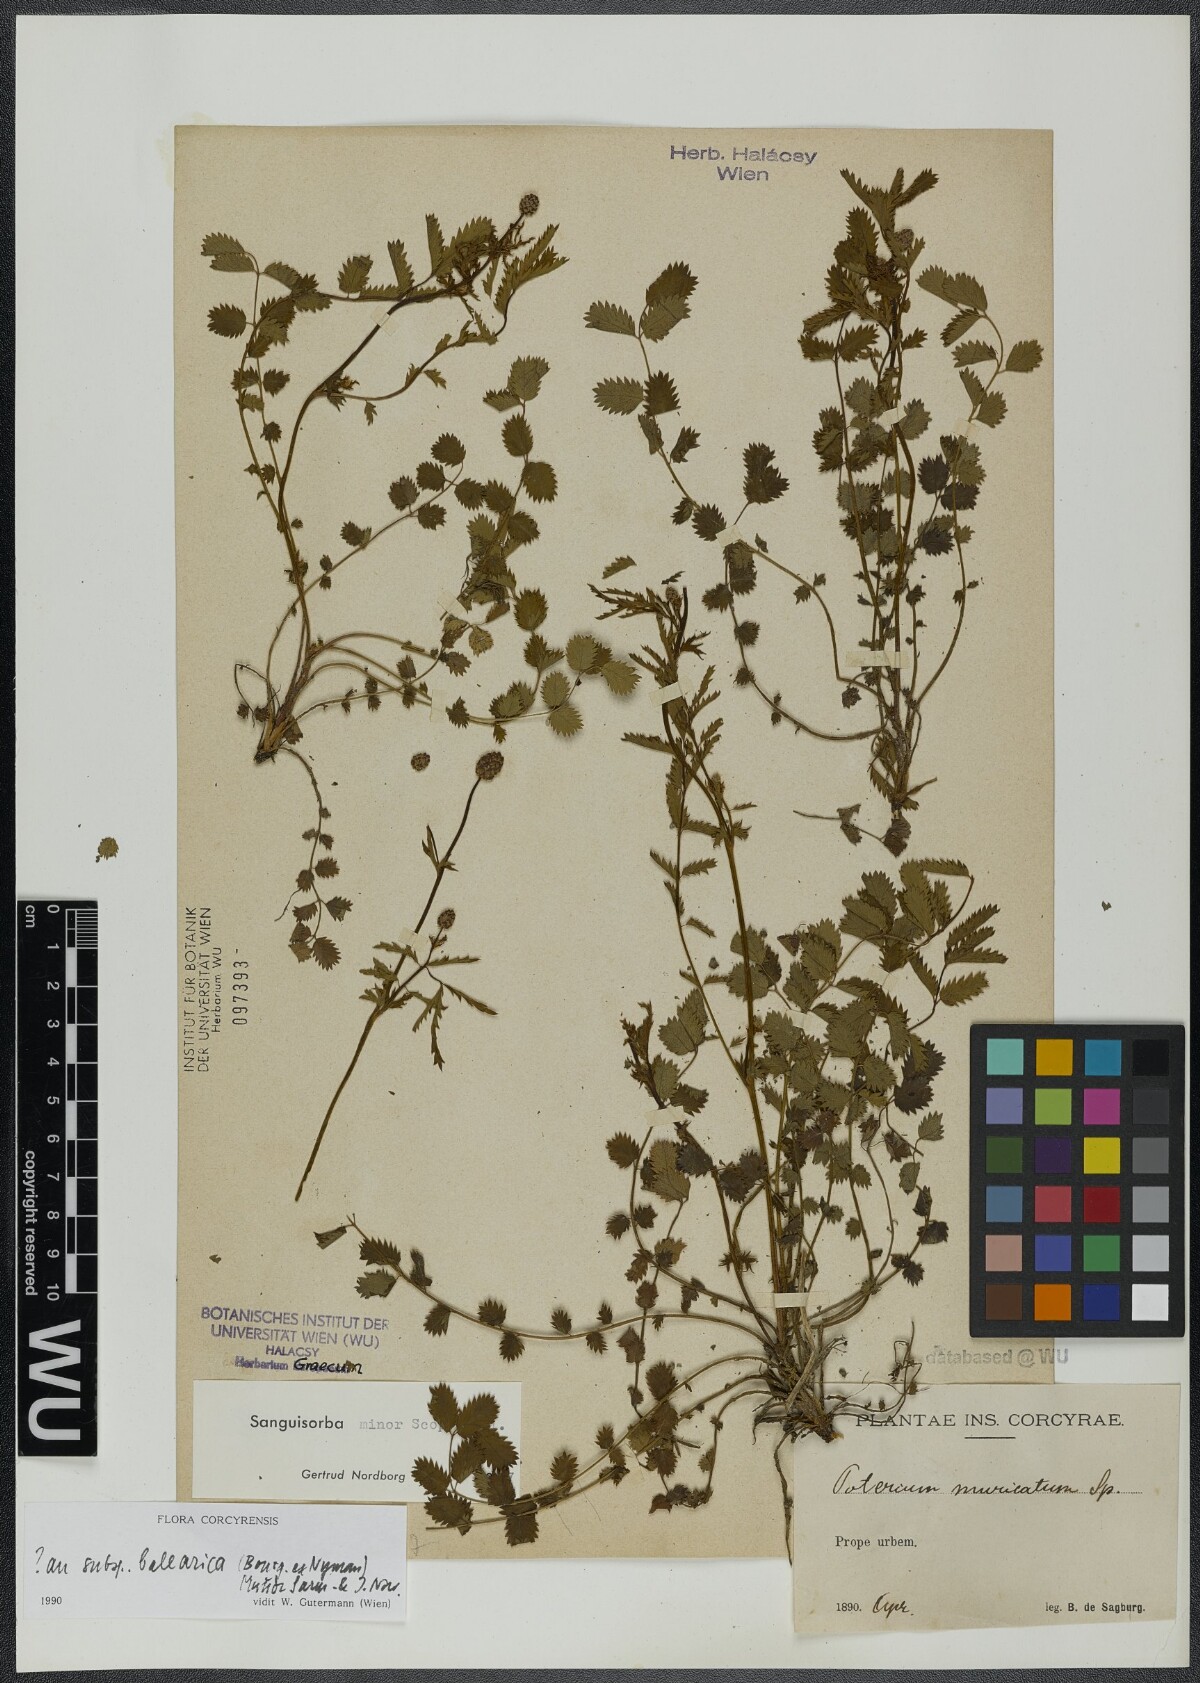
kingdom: Plantae
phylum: Tracheophyta
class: Magnoliopsida
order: Rosales
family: Rosaceae
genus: Poterium
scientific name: Poterium sanguisorba
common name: Salad burnet
